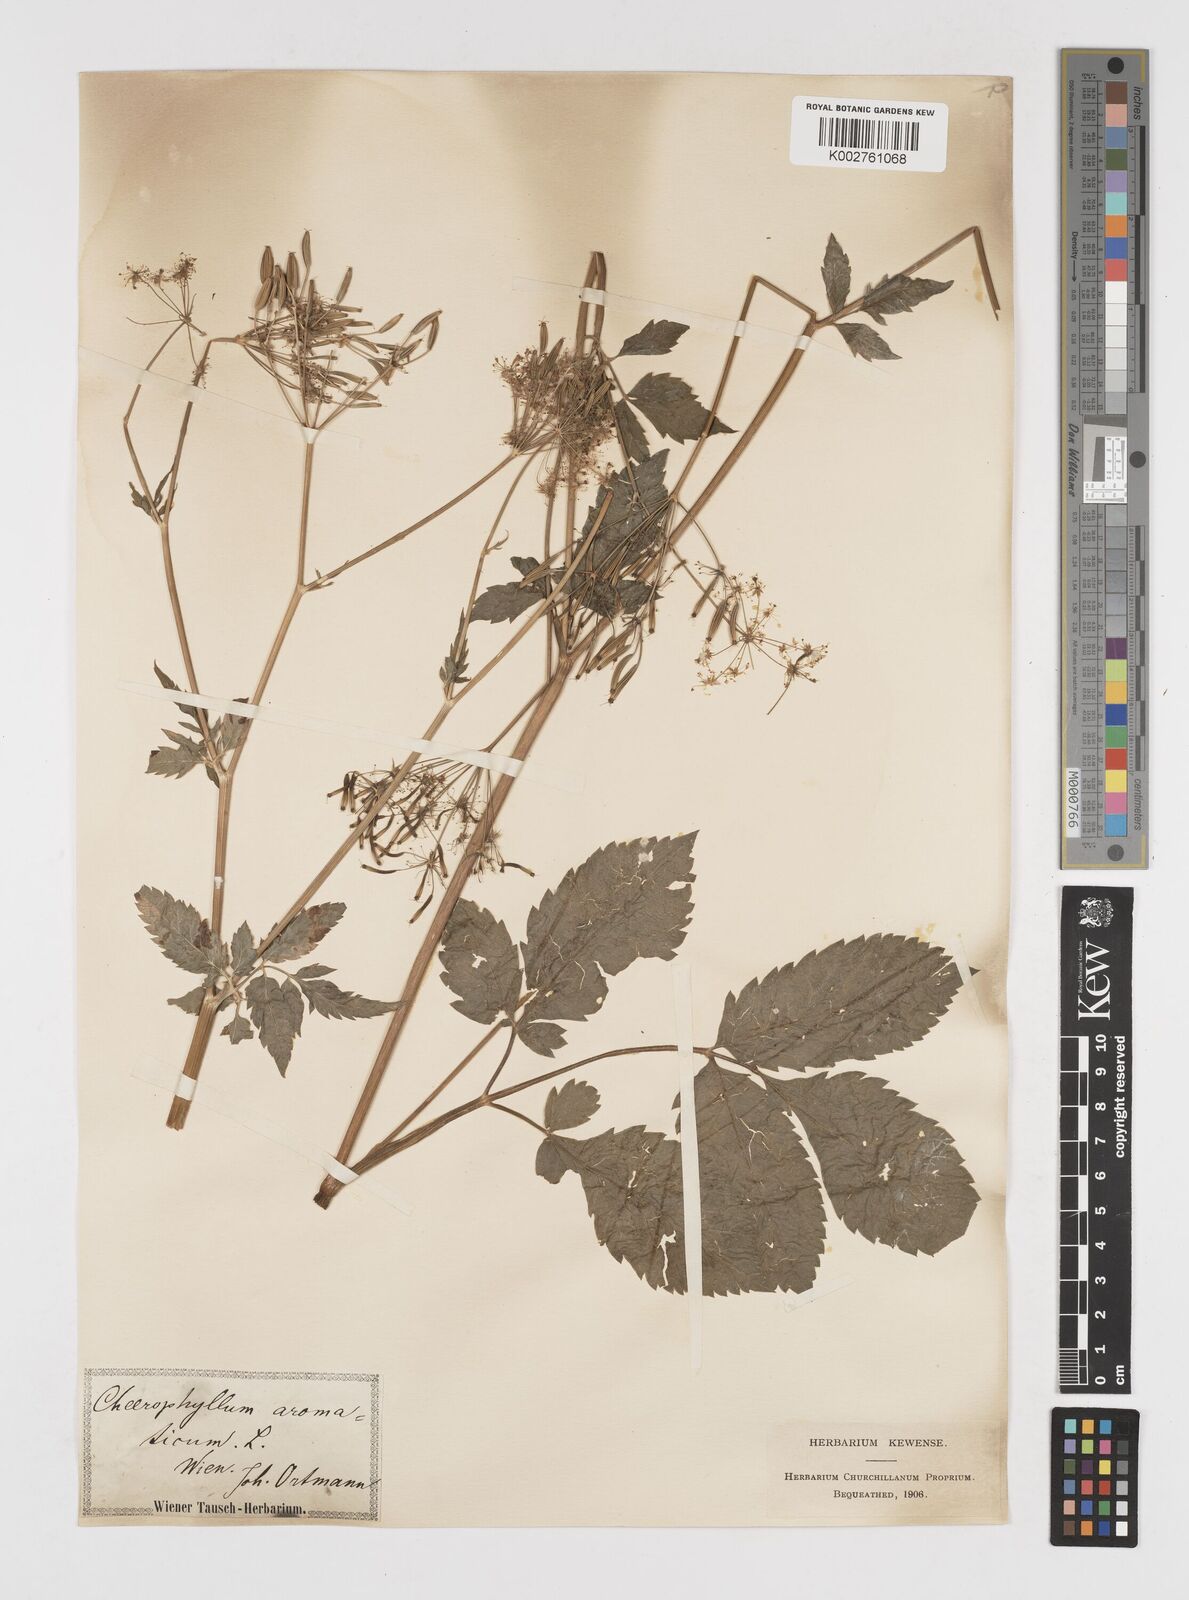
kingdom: Plantae
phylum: Tracheophyta
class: Magnoliopsida
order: Apiales
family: Apiaceae
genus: Chaerophyllum
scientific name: Chaerophyllum aromaticum
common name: Broadleaf chervil
